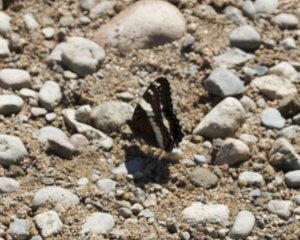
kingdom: Animalia
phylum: Arthropoda
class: Insecta
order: Lepidoptera
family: Nymphalidae
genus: Limenitis
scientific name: Limenitis arthemis
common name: Red-spotted Admiral
